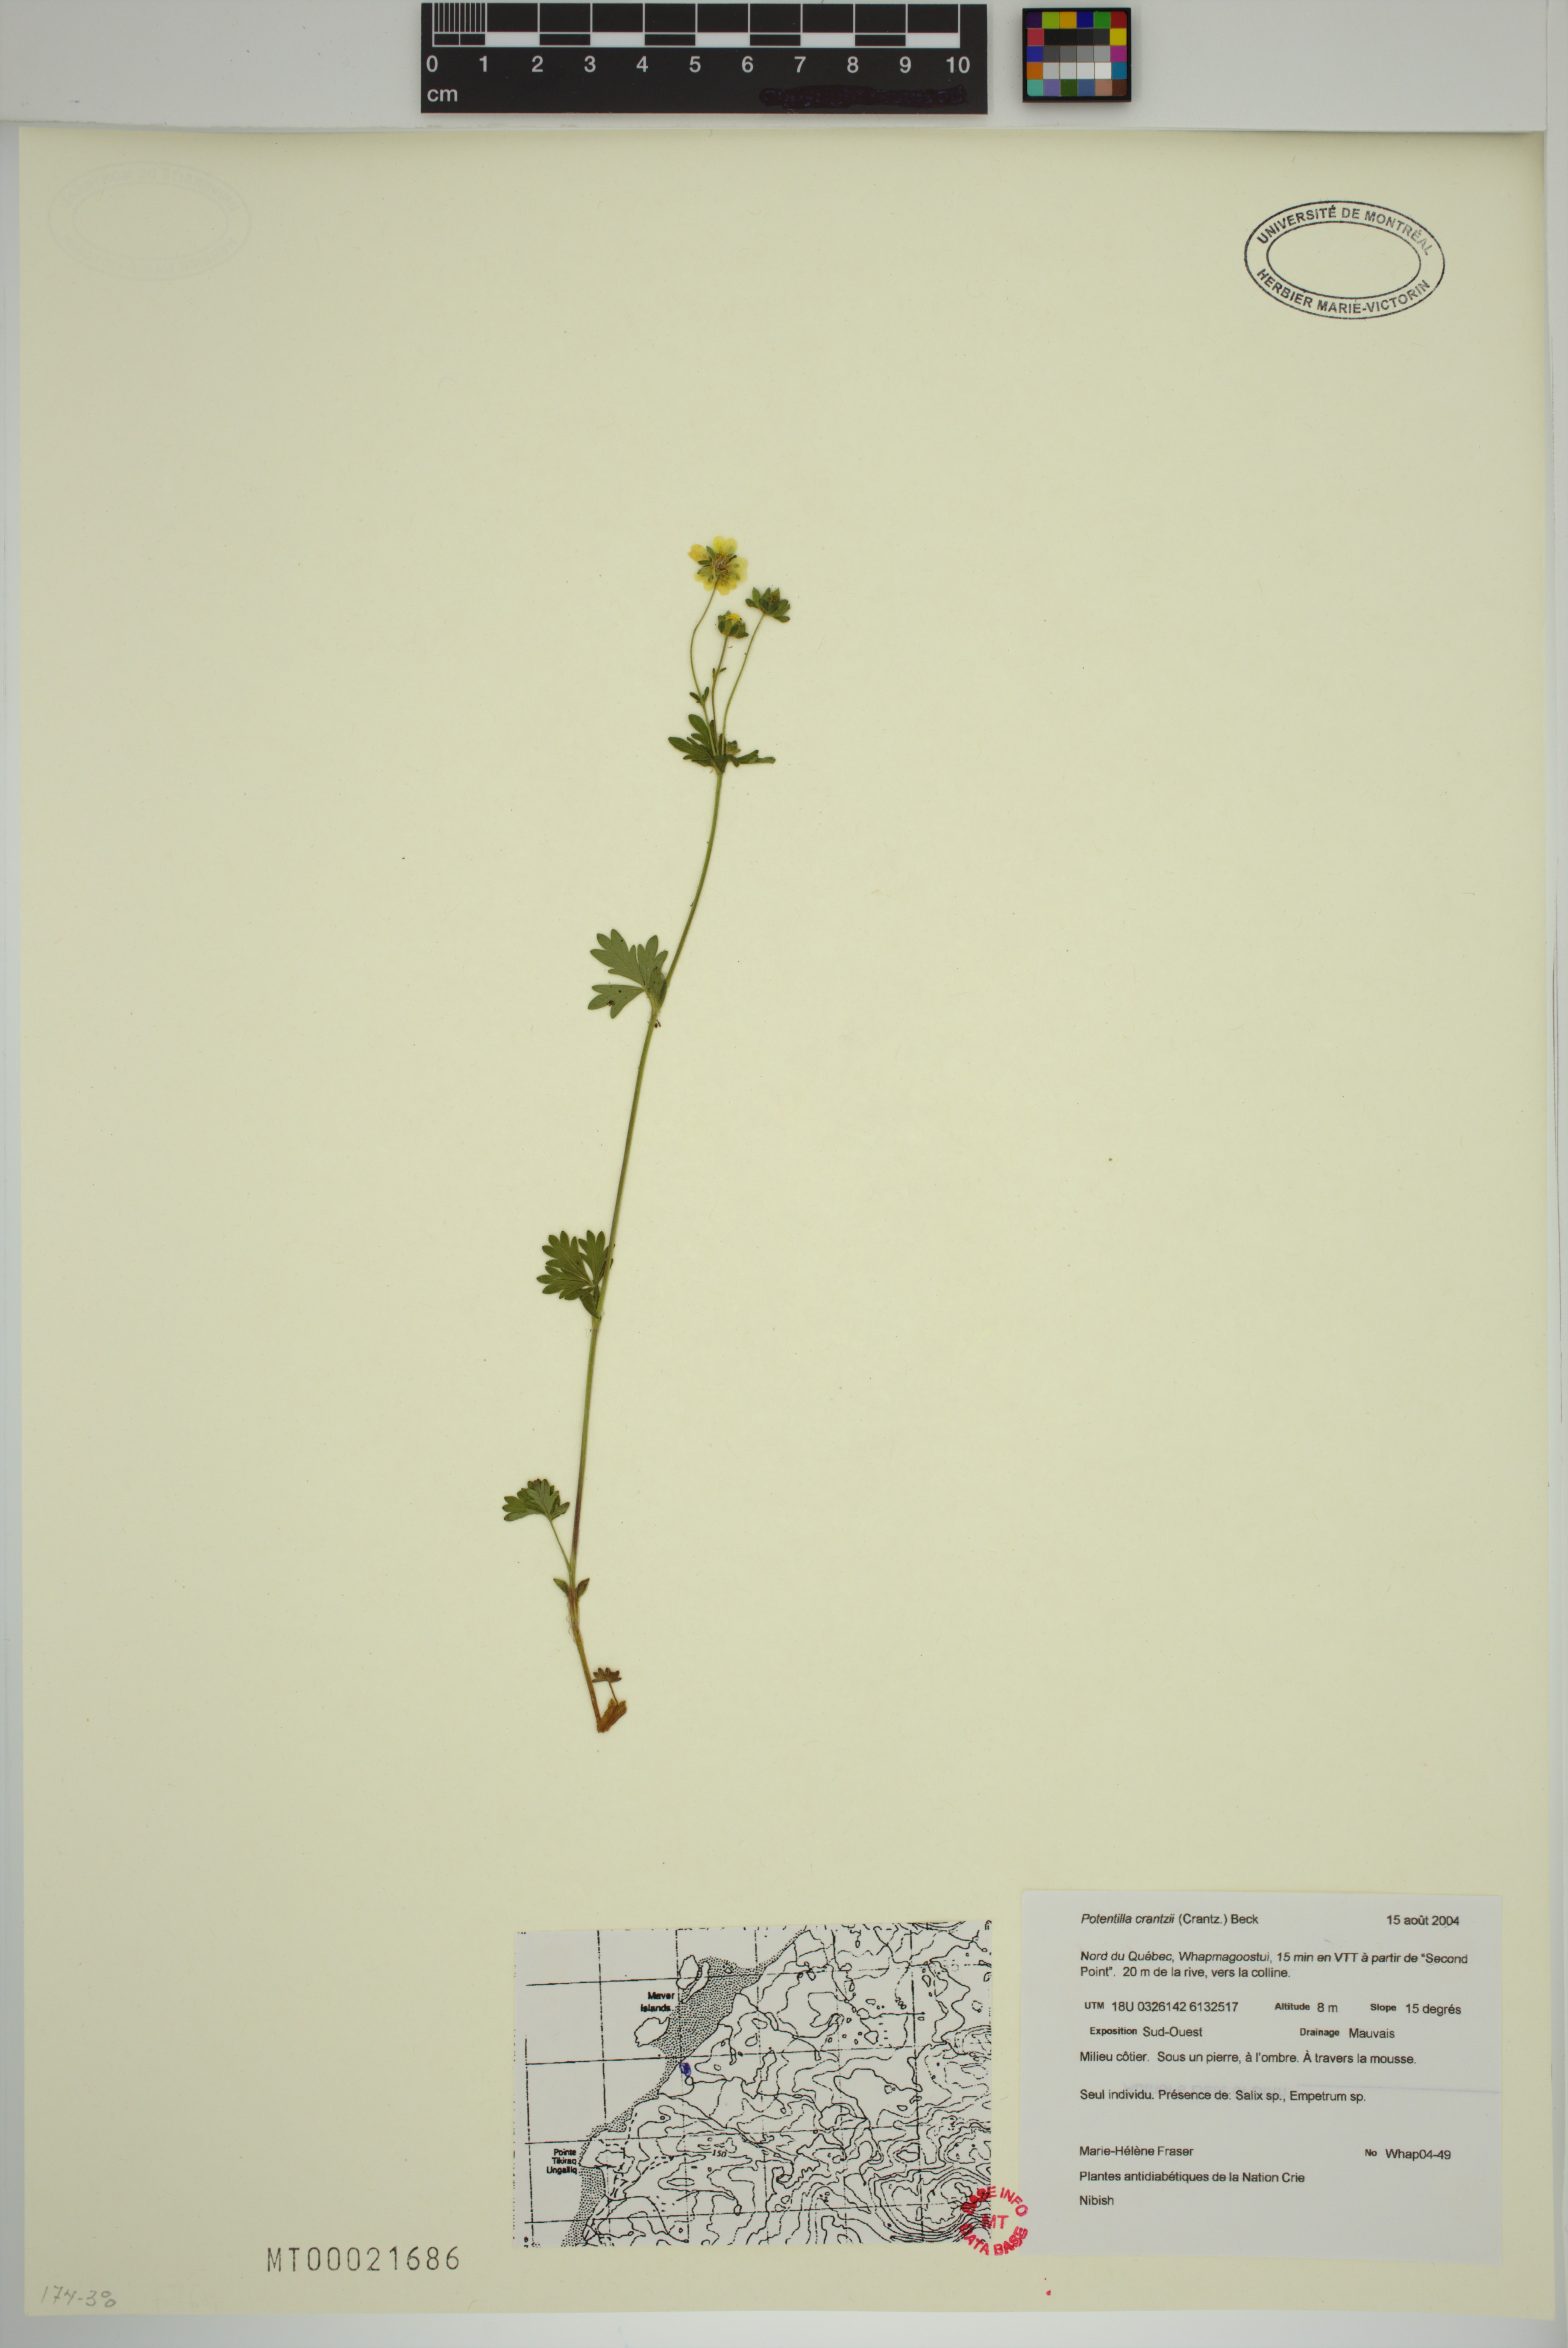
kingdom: Plantae
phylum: Tracheophyta
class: Magnoliopsida
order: Rosales
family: Rosaceae
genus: Potentilla
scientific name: Potentilla crantzii
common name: Alpine cinquefoil
